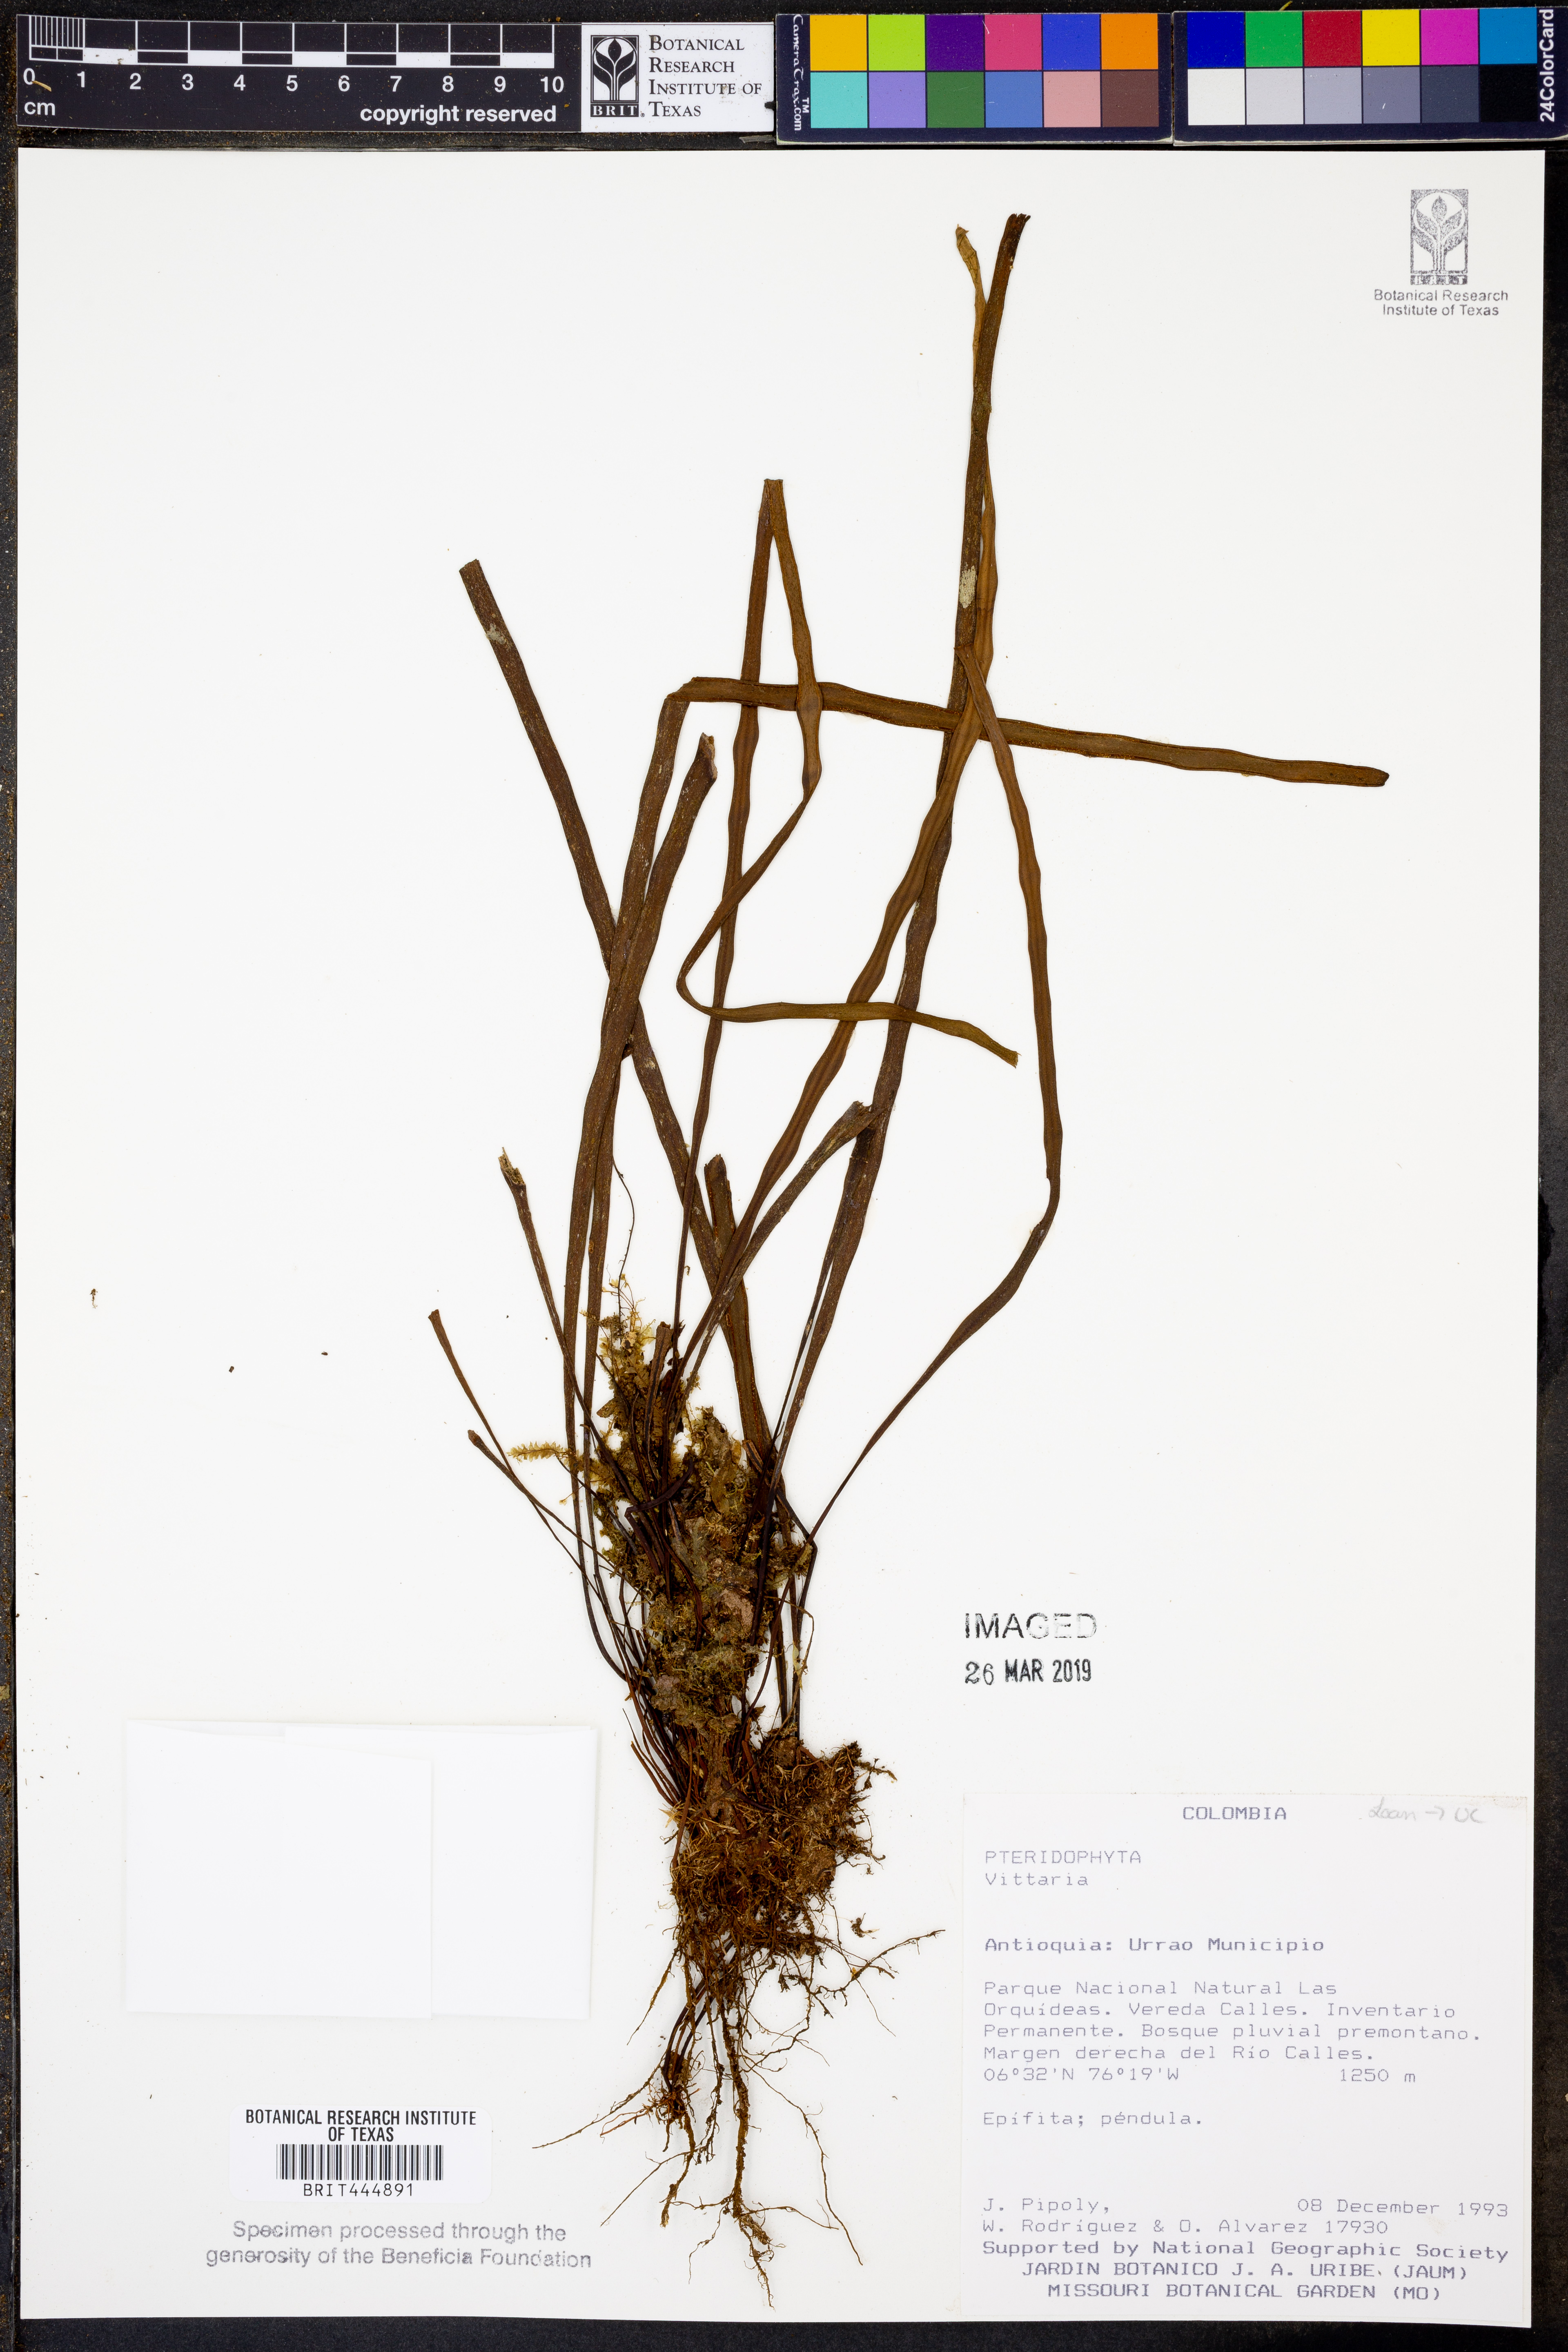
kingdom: Plantae
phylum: Tracheophyta
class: Polypodiopsida
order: Polypodiales
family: Pteridaceae
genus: Vittaria
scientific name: Vittaria
